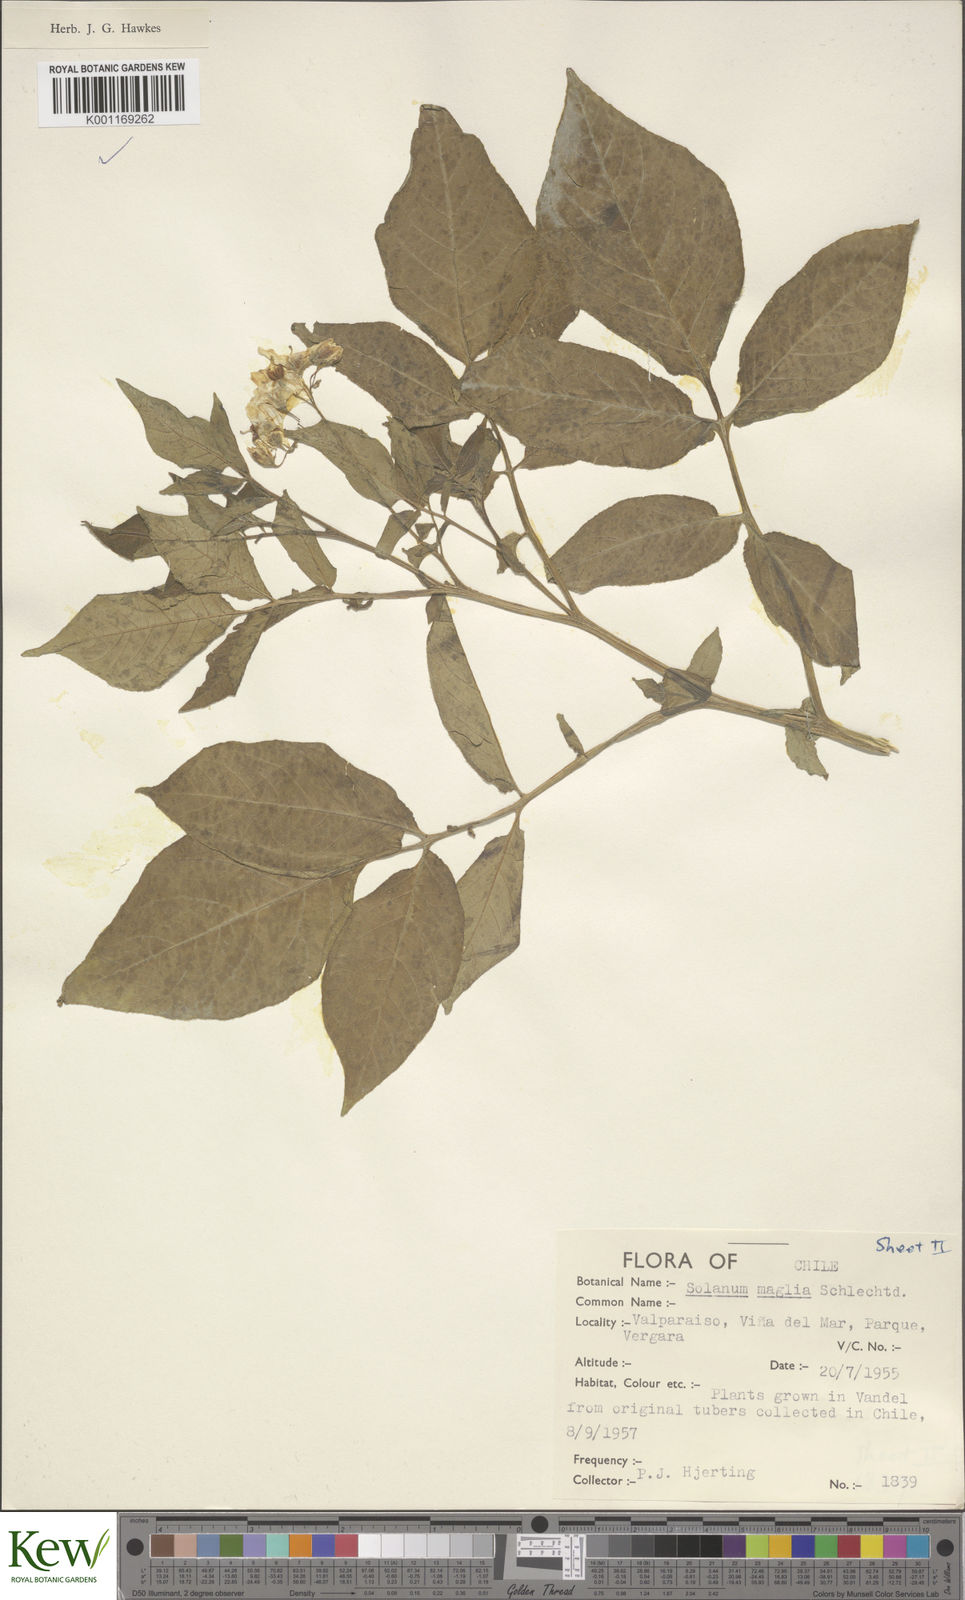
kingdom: Plantae
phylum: Tracheophyta
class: Magnoliopsida
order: Solanales
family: Solanaceae
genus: Solanum
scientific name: Solanum maglia
